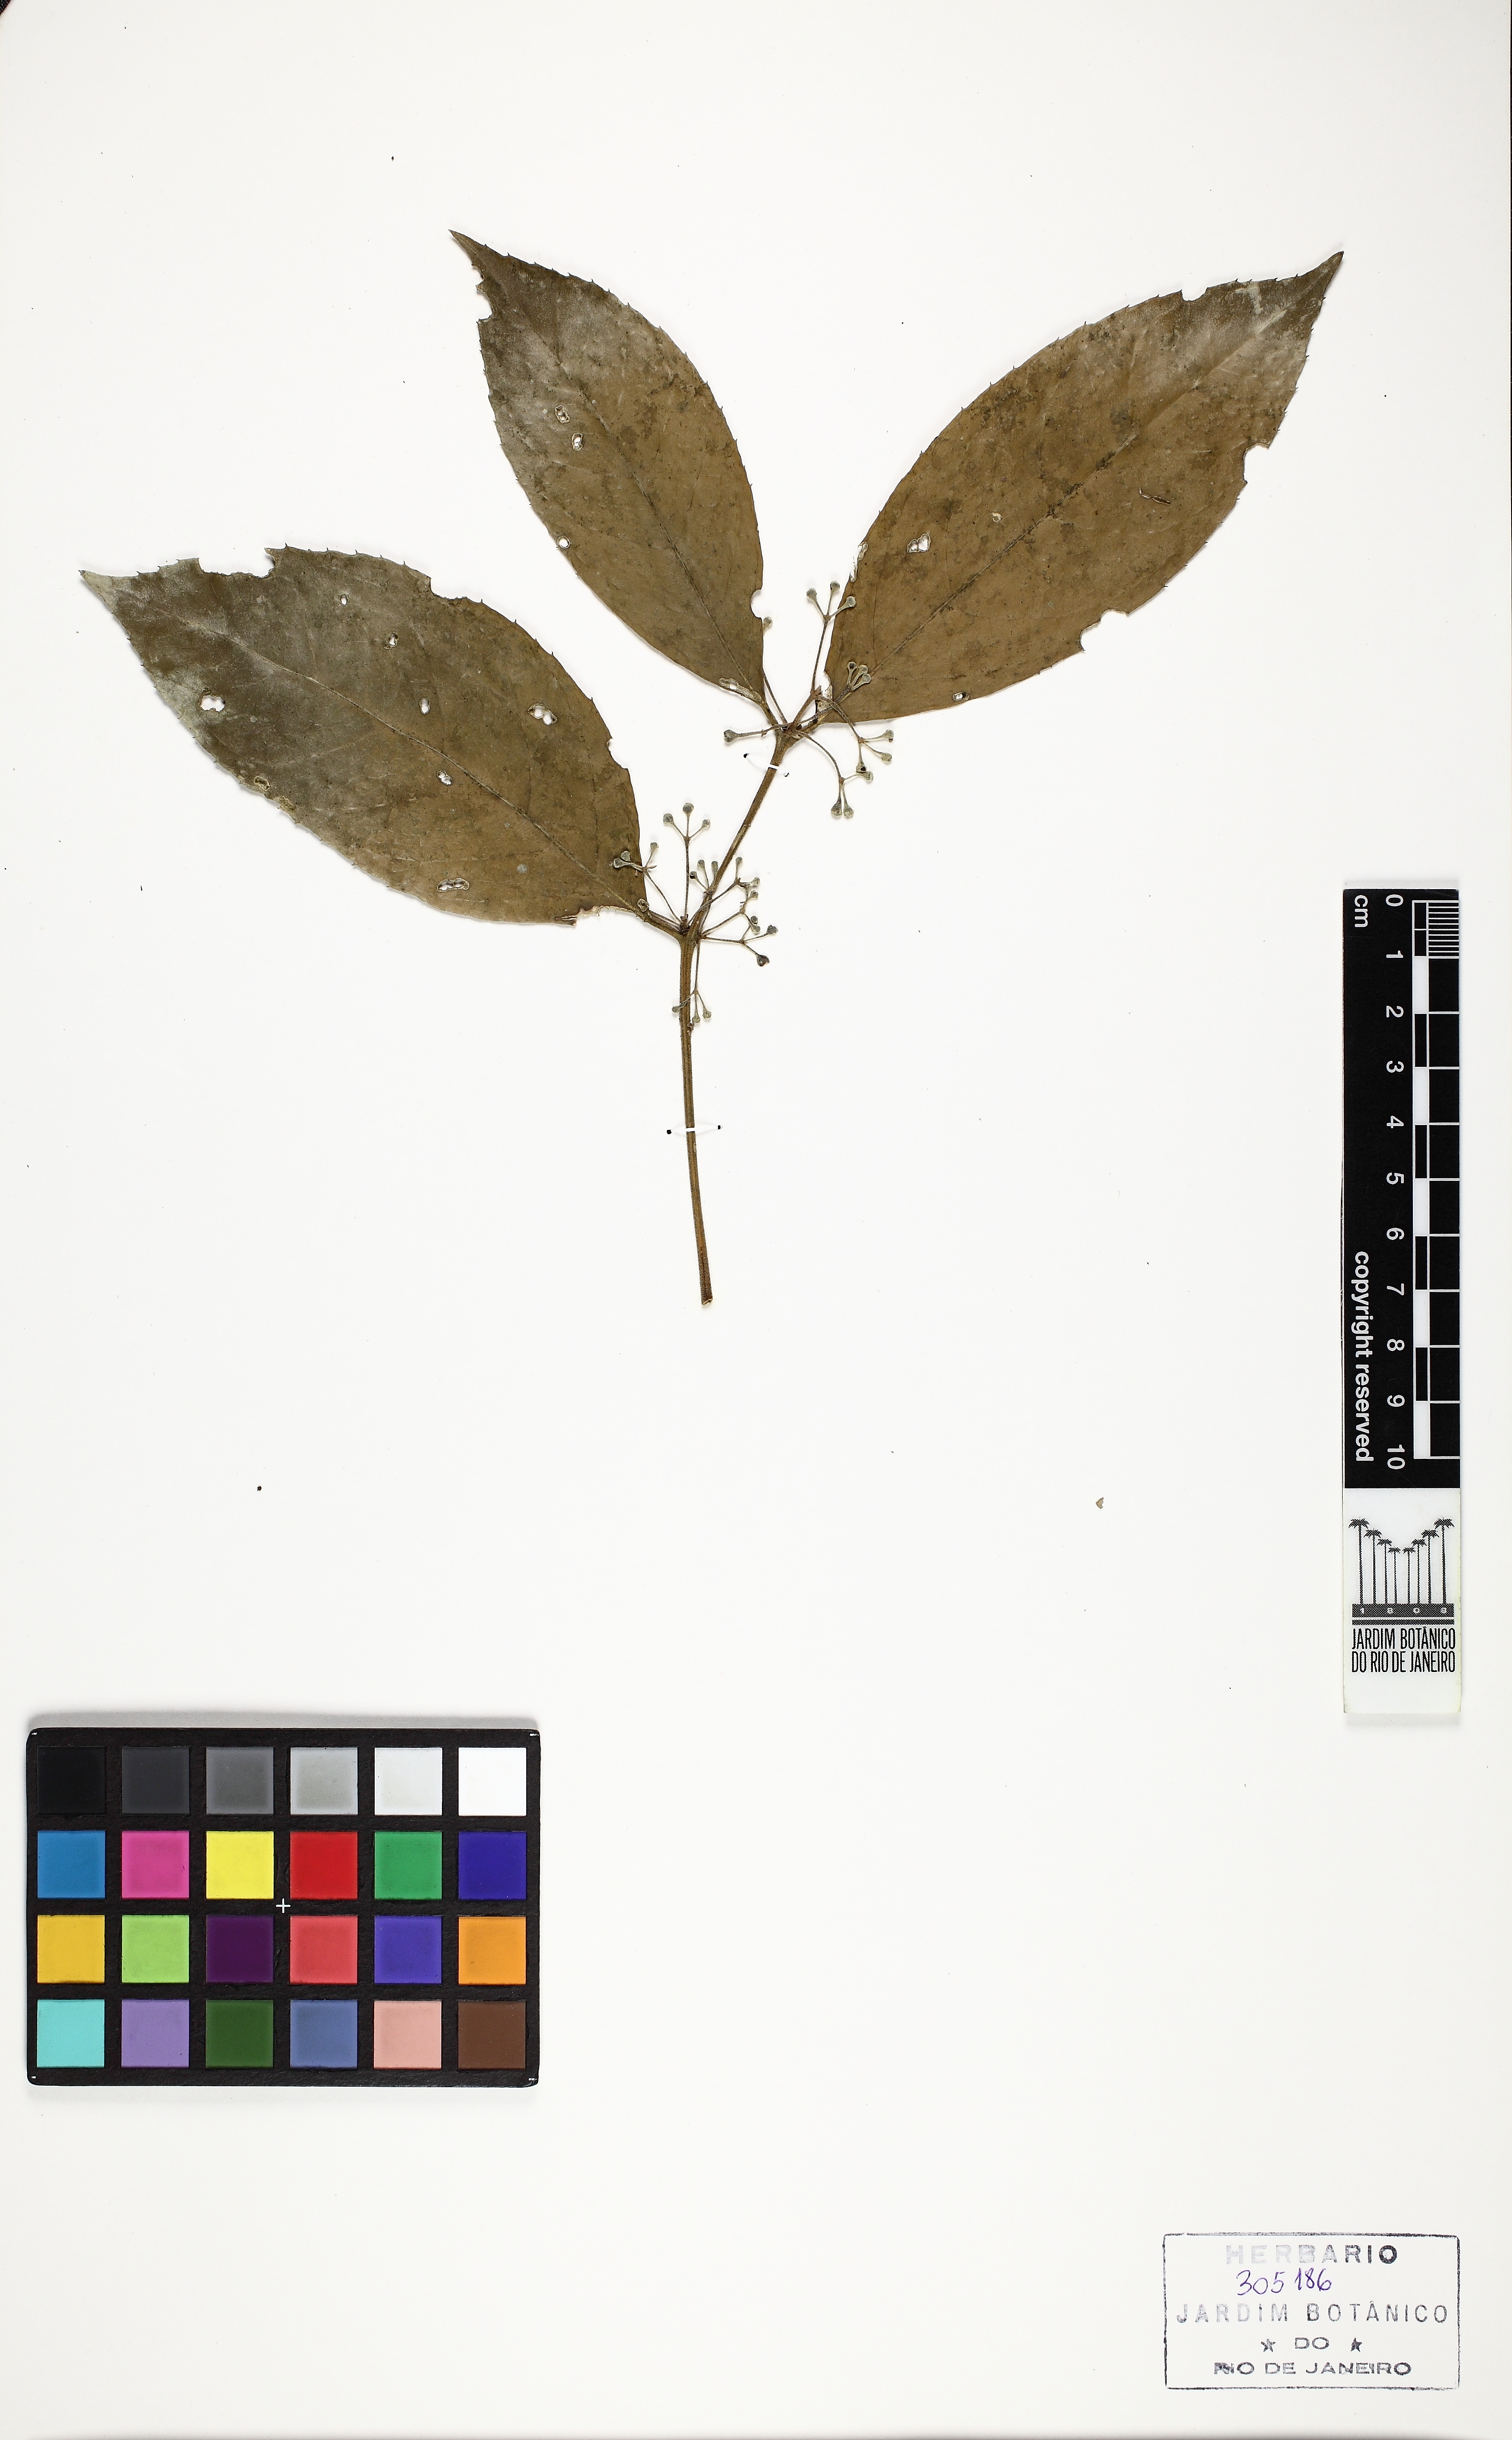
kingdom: Plantae
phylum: Tracheophyta
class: Magnoliopsida
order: Malvales
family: Thymelaeaceae
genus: Daphnopsis
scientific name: Daphnopsis
